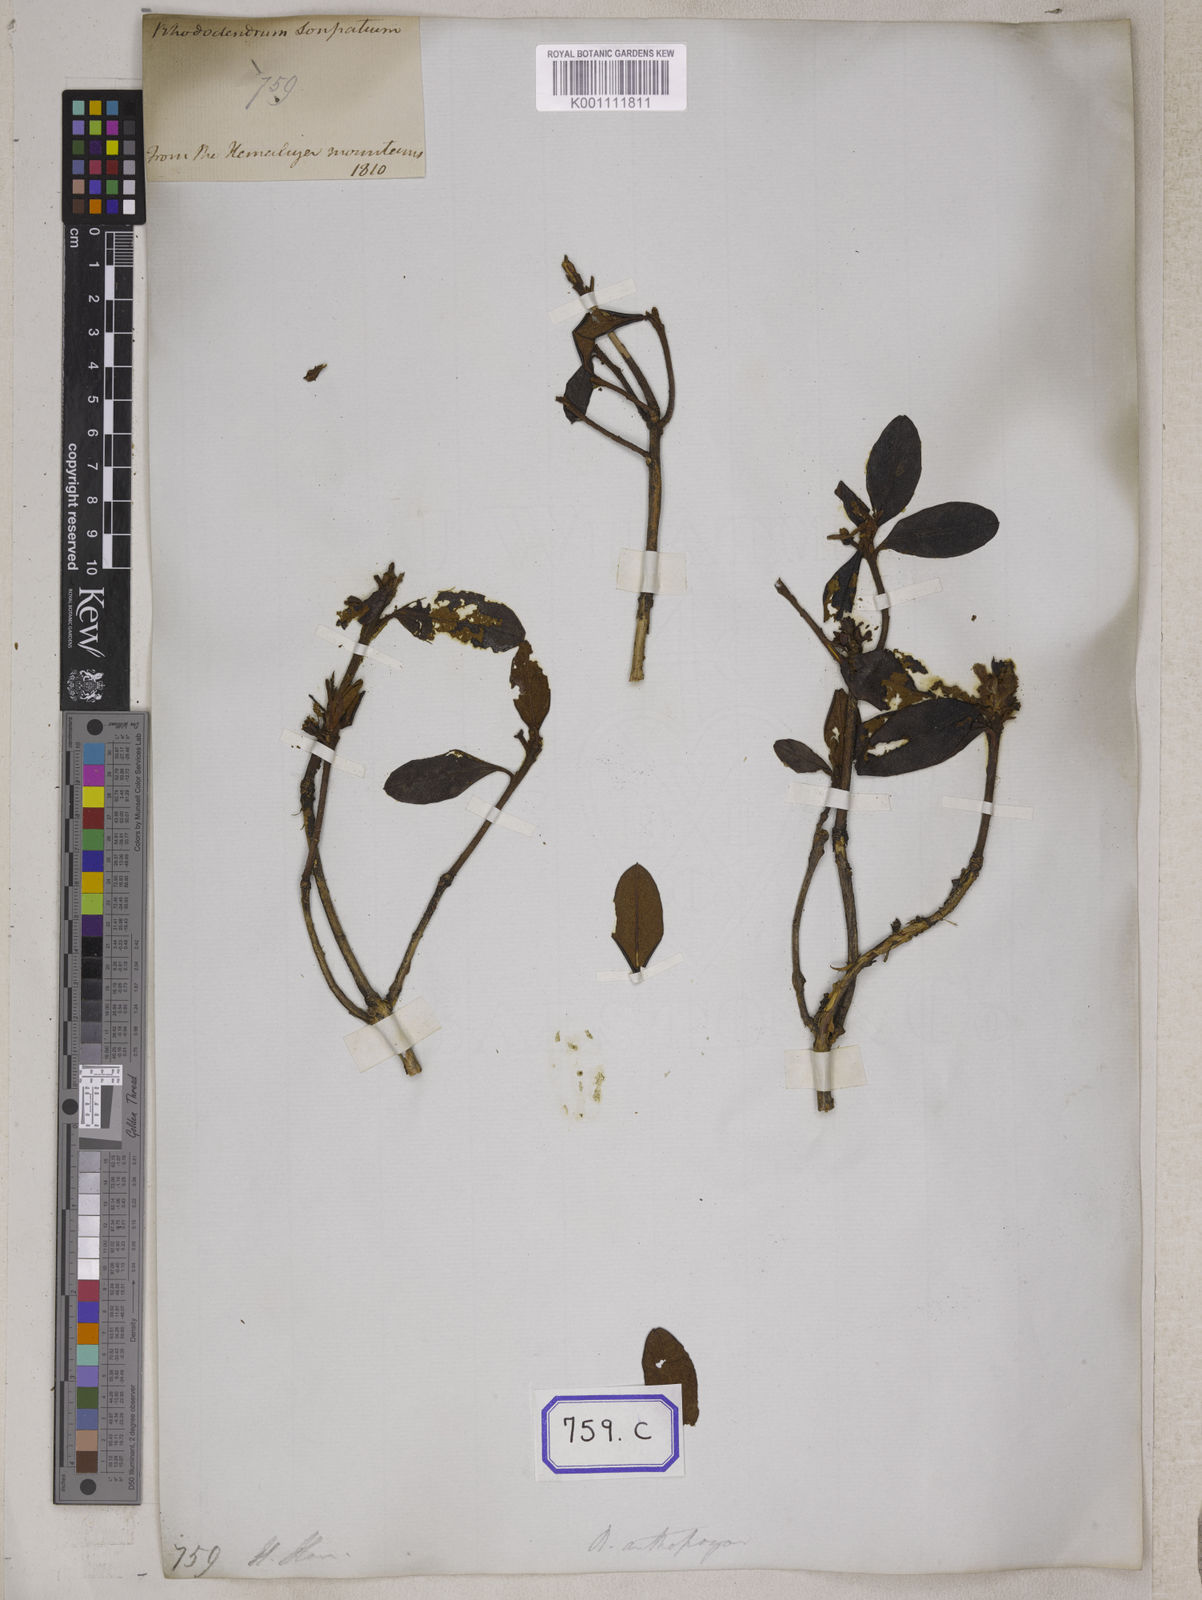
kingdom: Plantae
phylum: Tracheophyta
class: Magnoliopsida
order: Ericales
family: Ericaceae
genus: Rhododendron
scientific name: Rhododendron anthopogon
